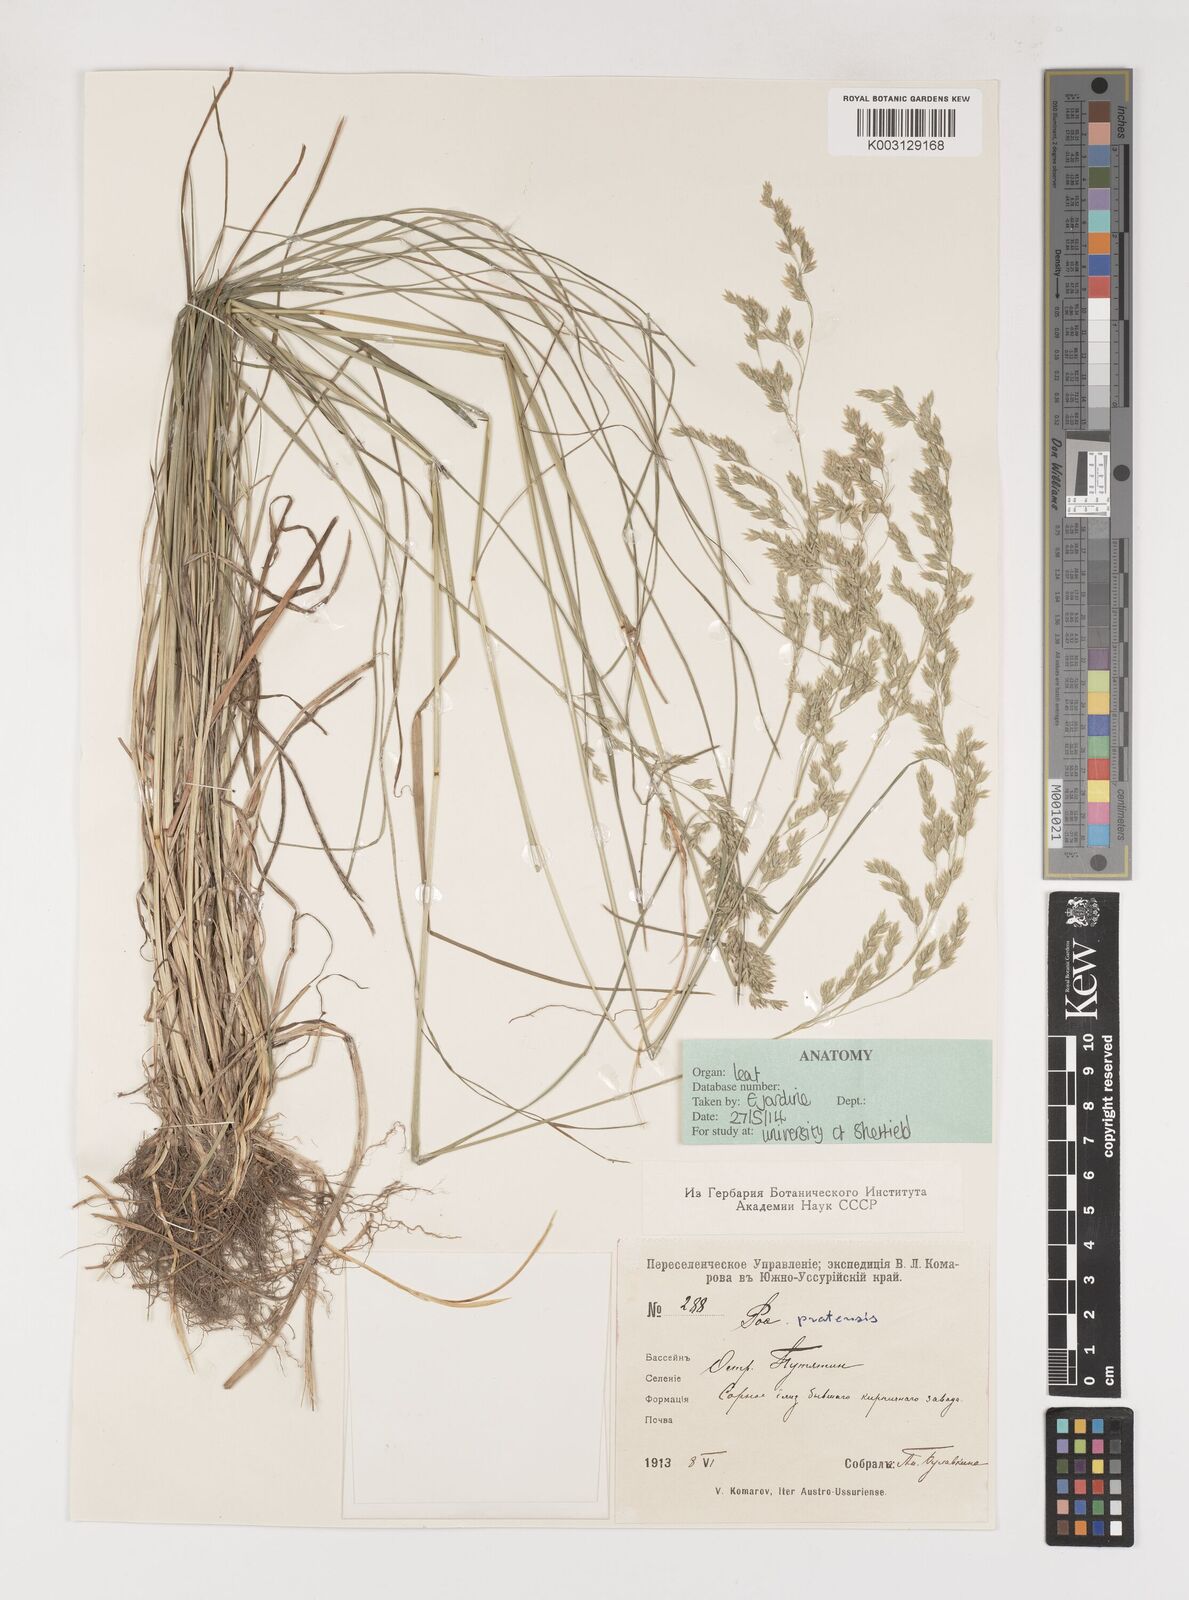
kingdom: Plantae
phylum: Tracheophyta
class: Liliopsida
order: Poales
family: Poaceae
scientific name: Poaceae
